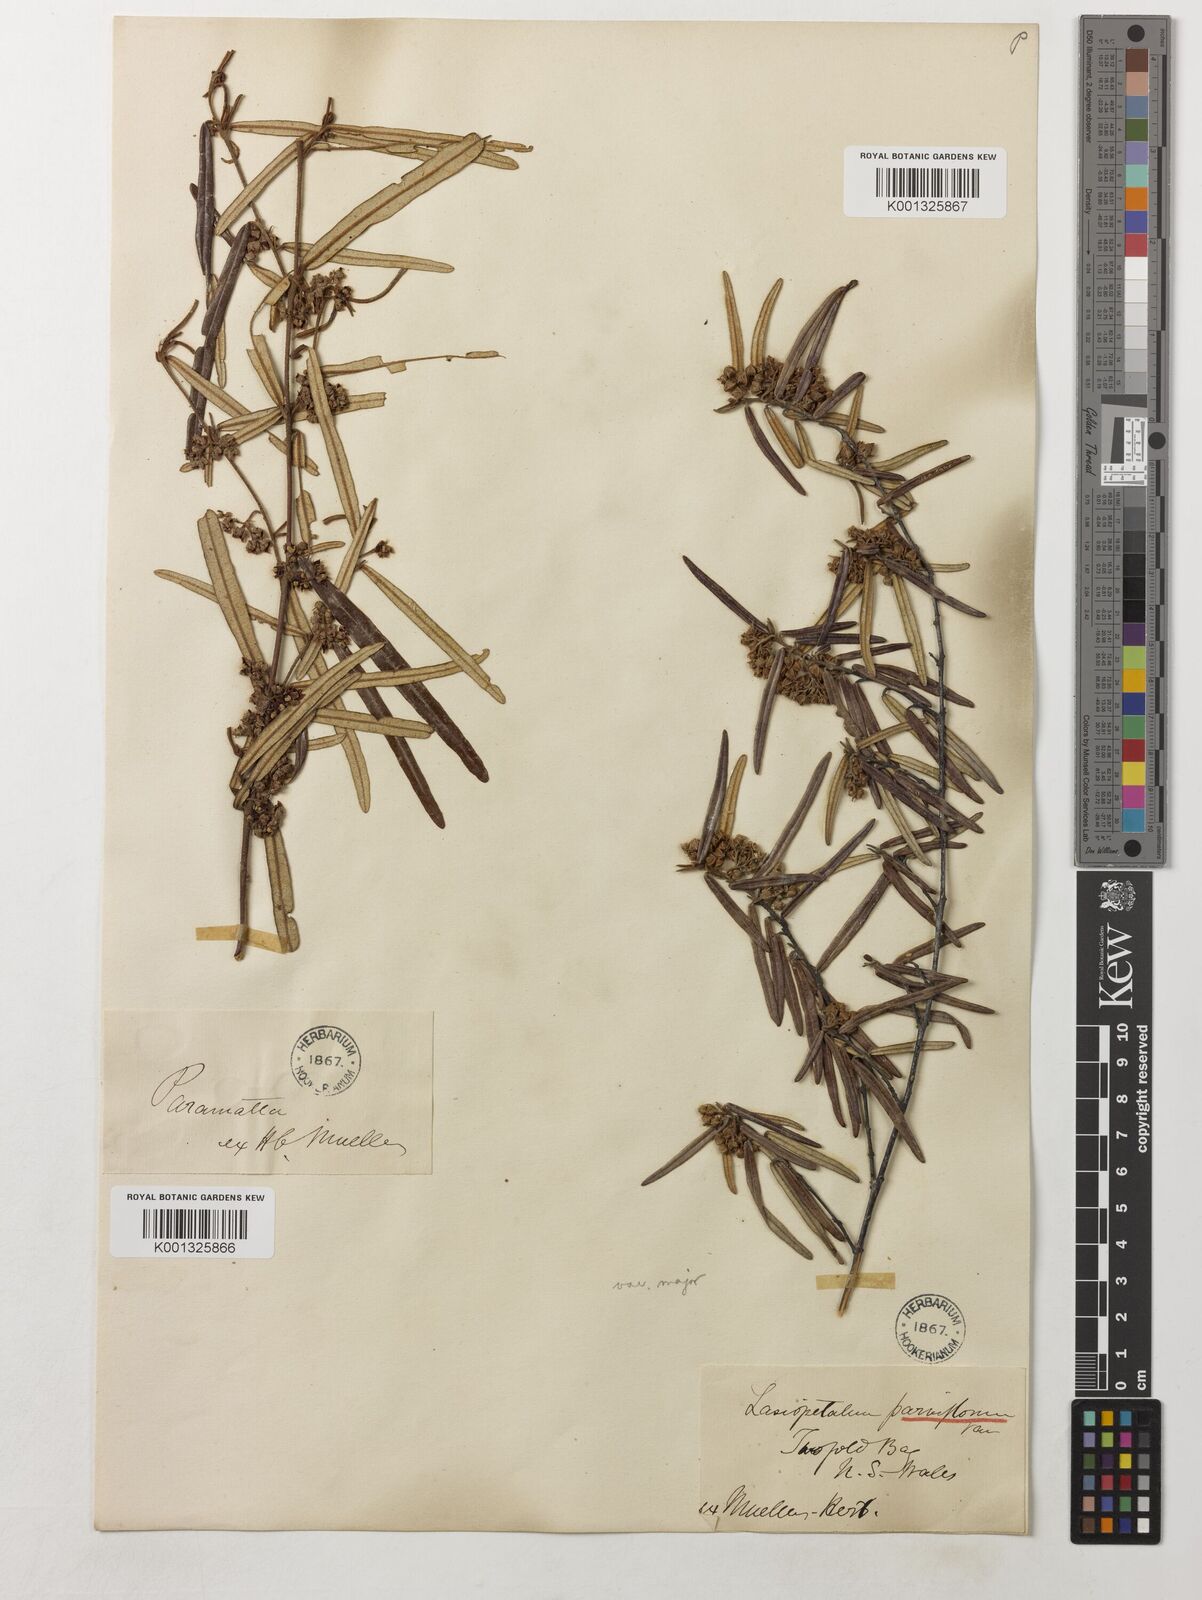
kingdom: Plantae
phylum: Tracheophyta
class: Magnoliopsida
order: Malvales
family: Malvaceae
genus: Lasiopetalum
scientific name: Lasiopetalum parviflorum
